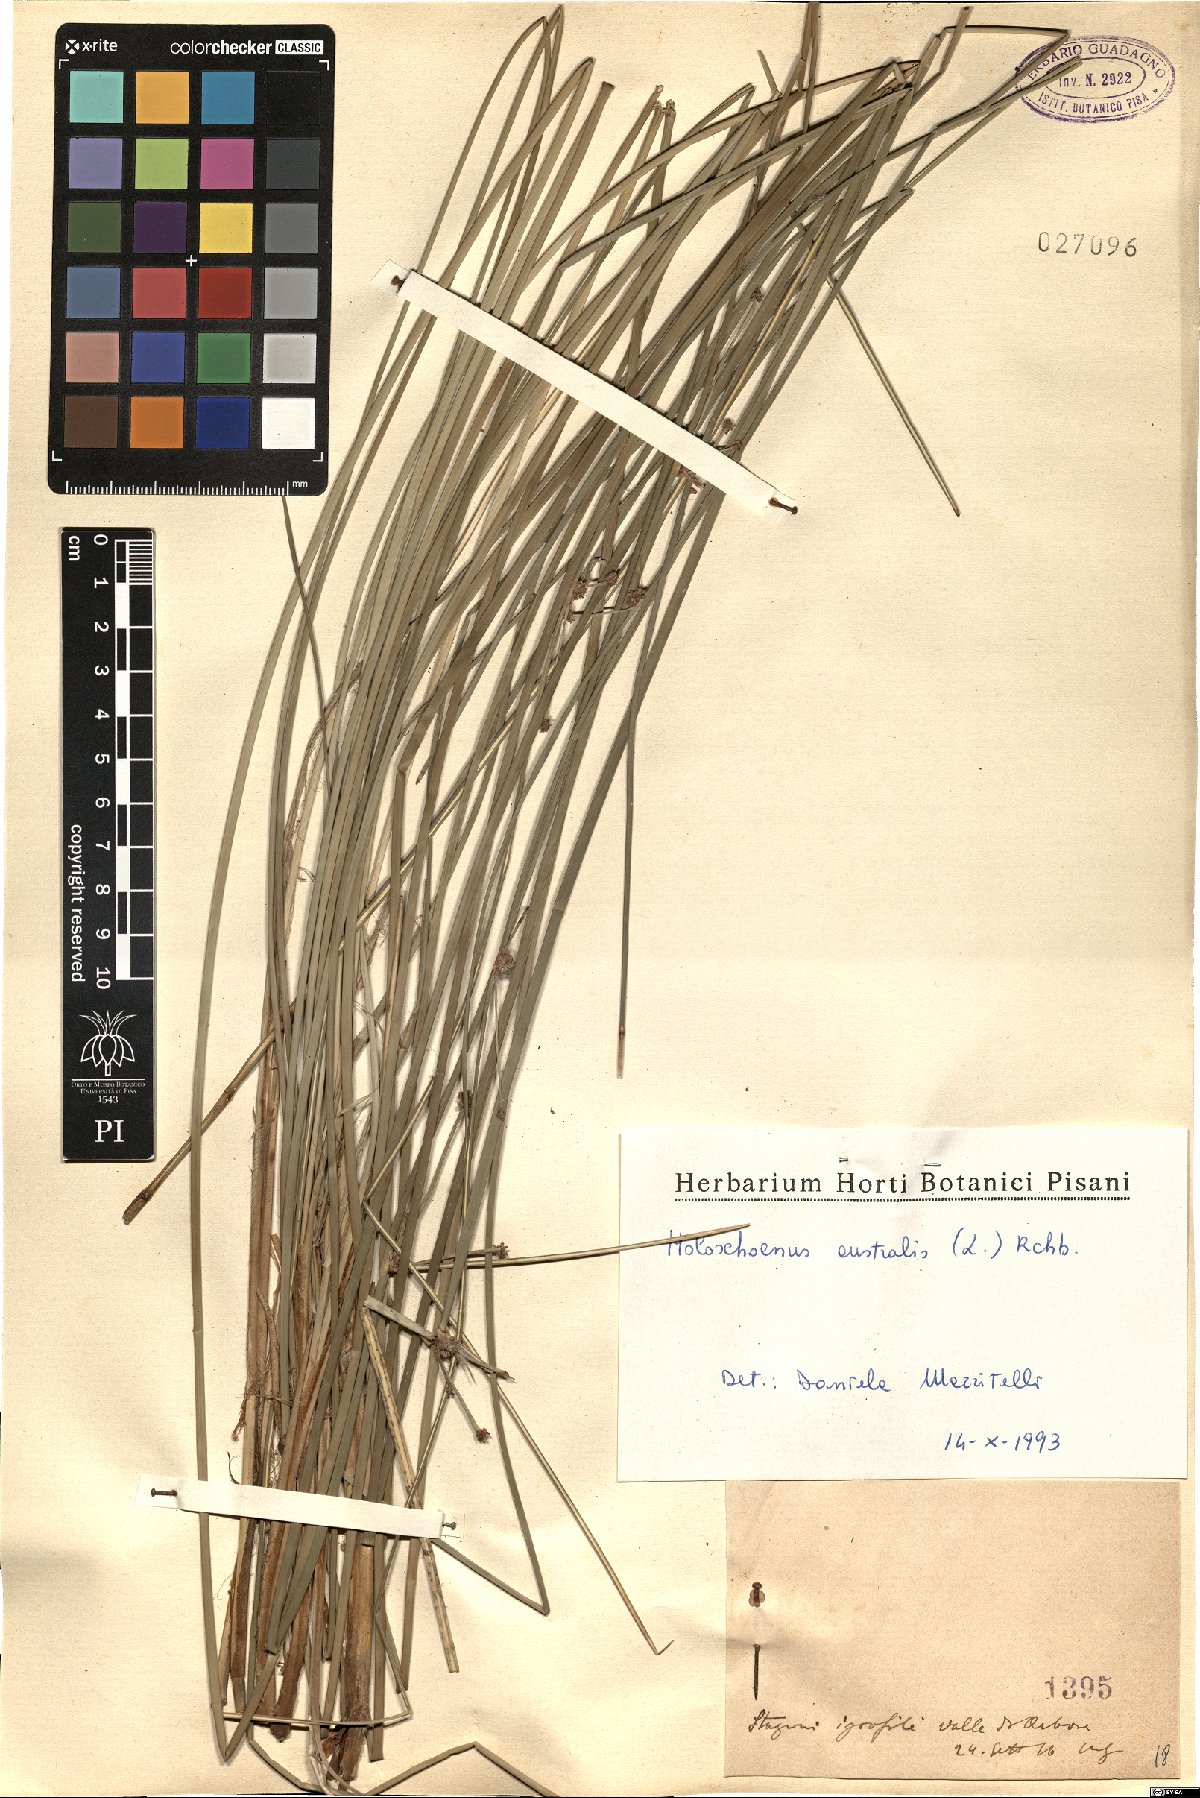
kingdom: Plantae
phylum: Tracheophyta
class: Liliopsida
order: Poales
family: Cyperaceae
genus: Scirpoides
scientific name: Scirpoides holoschoenus
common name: Round-headed club-rush
